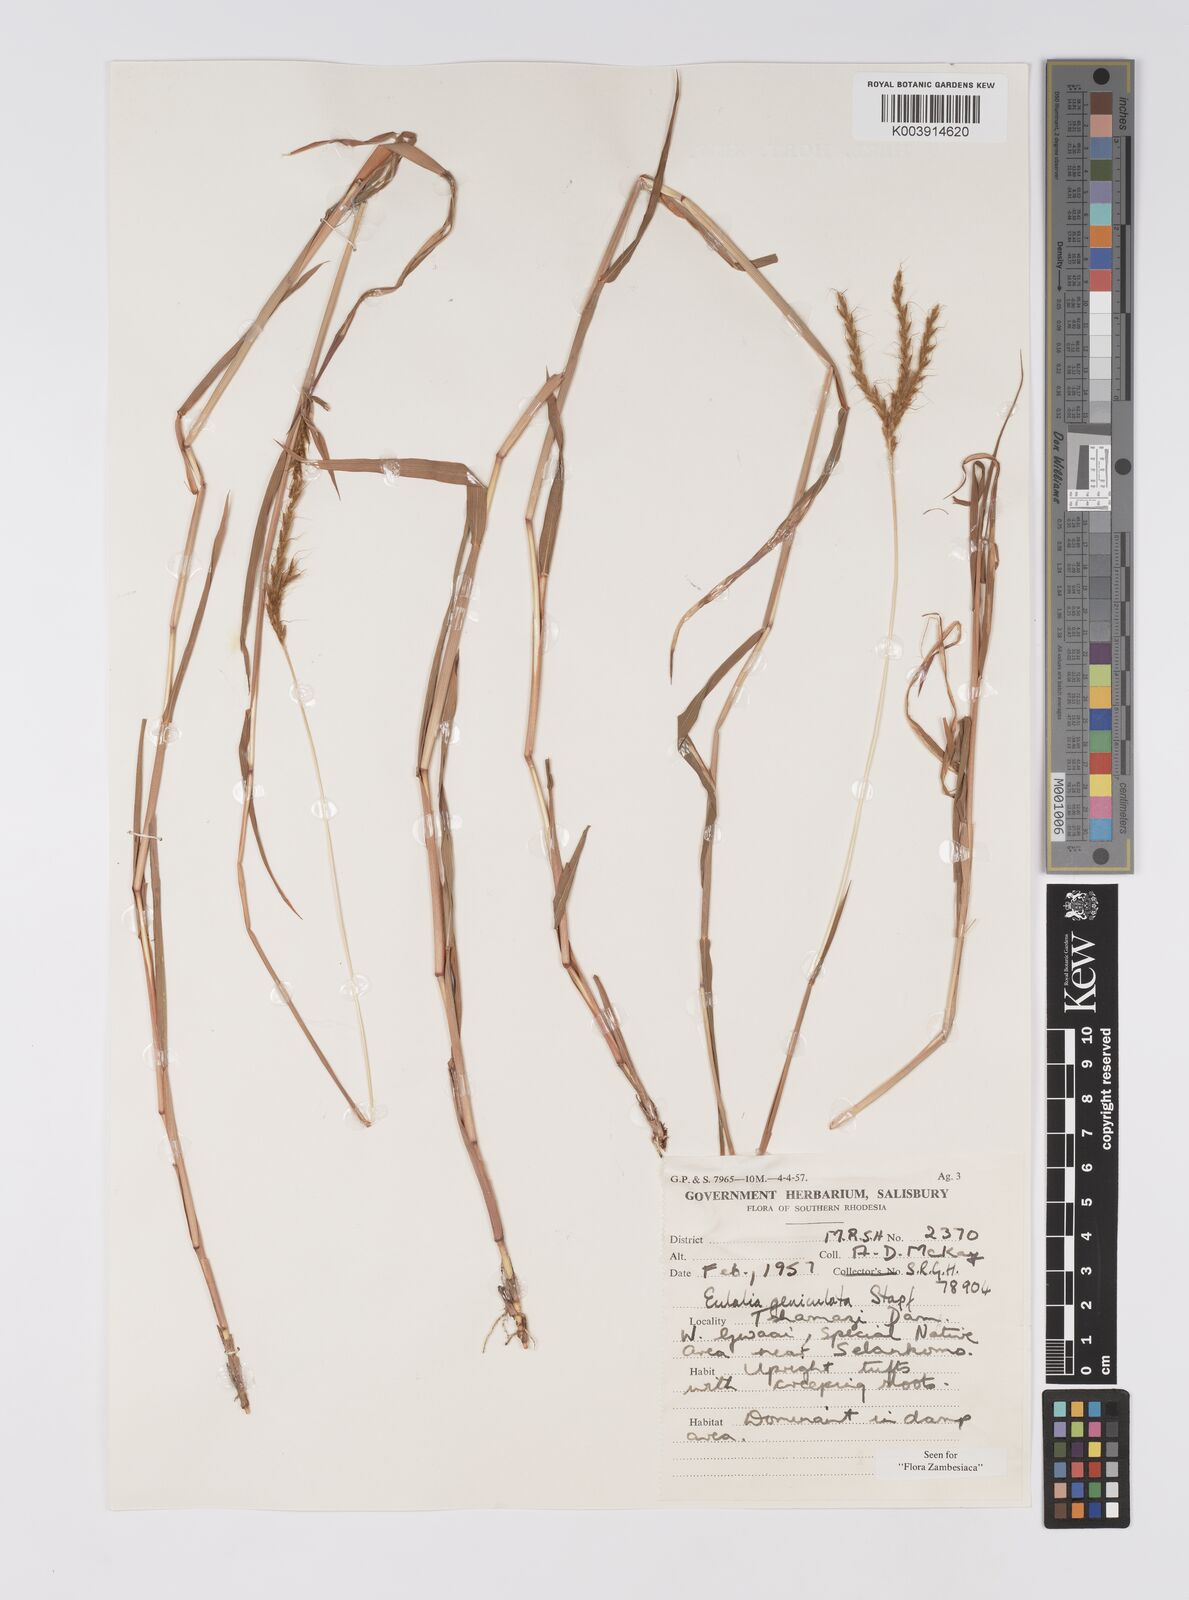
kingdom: Plantae
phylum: Tracheophyta
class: Liliopsida
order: Poales
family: Poaceae
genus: Eulalia
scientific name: Eulalia aurea
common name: Silky browntop
